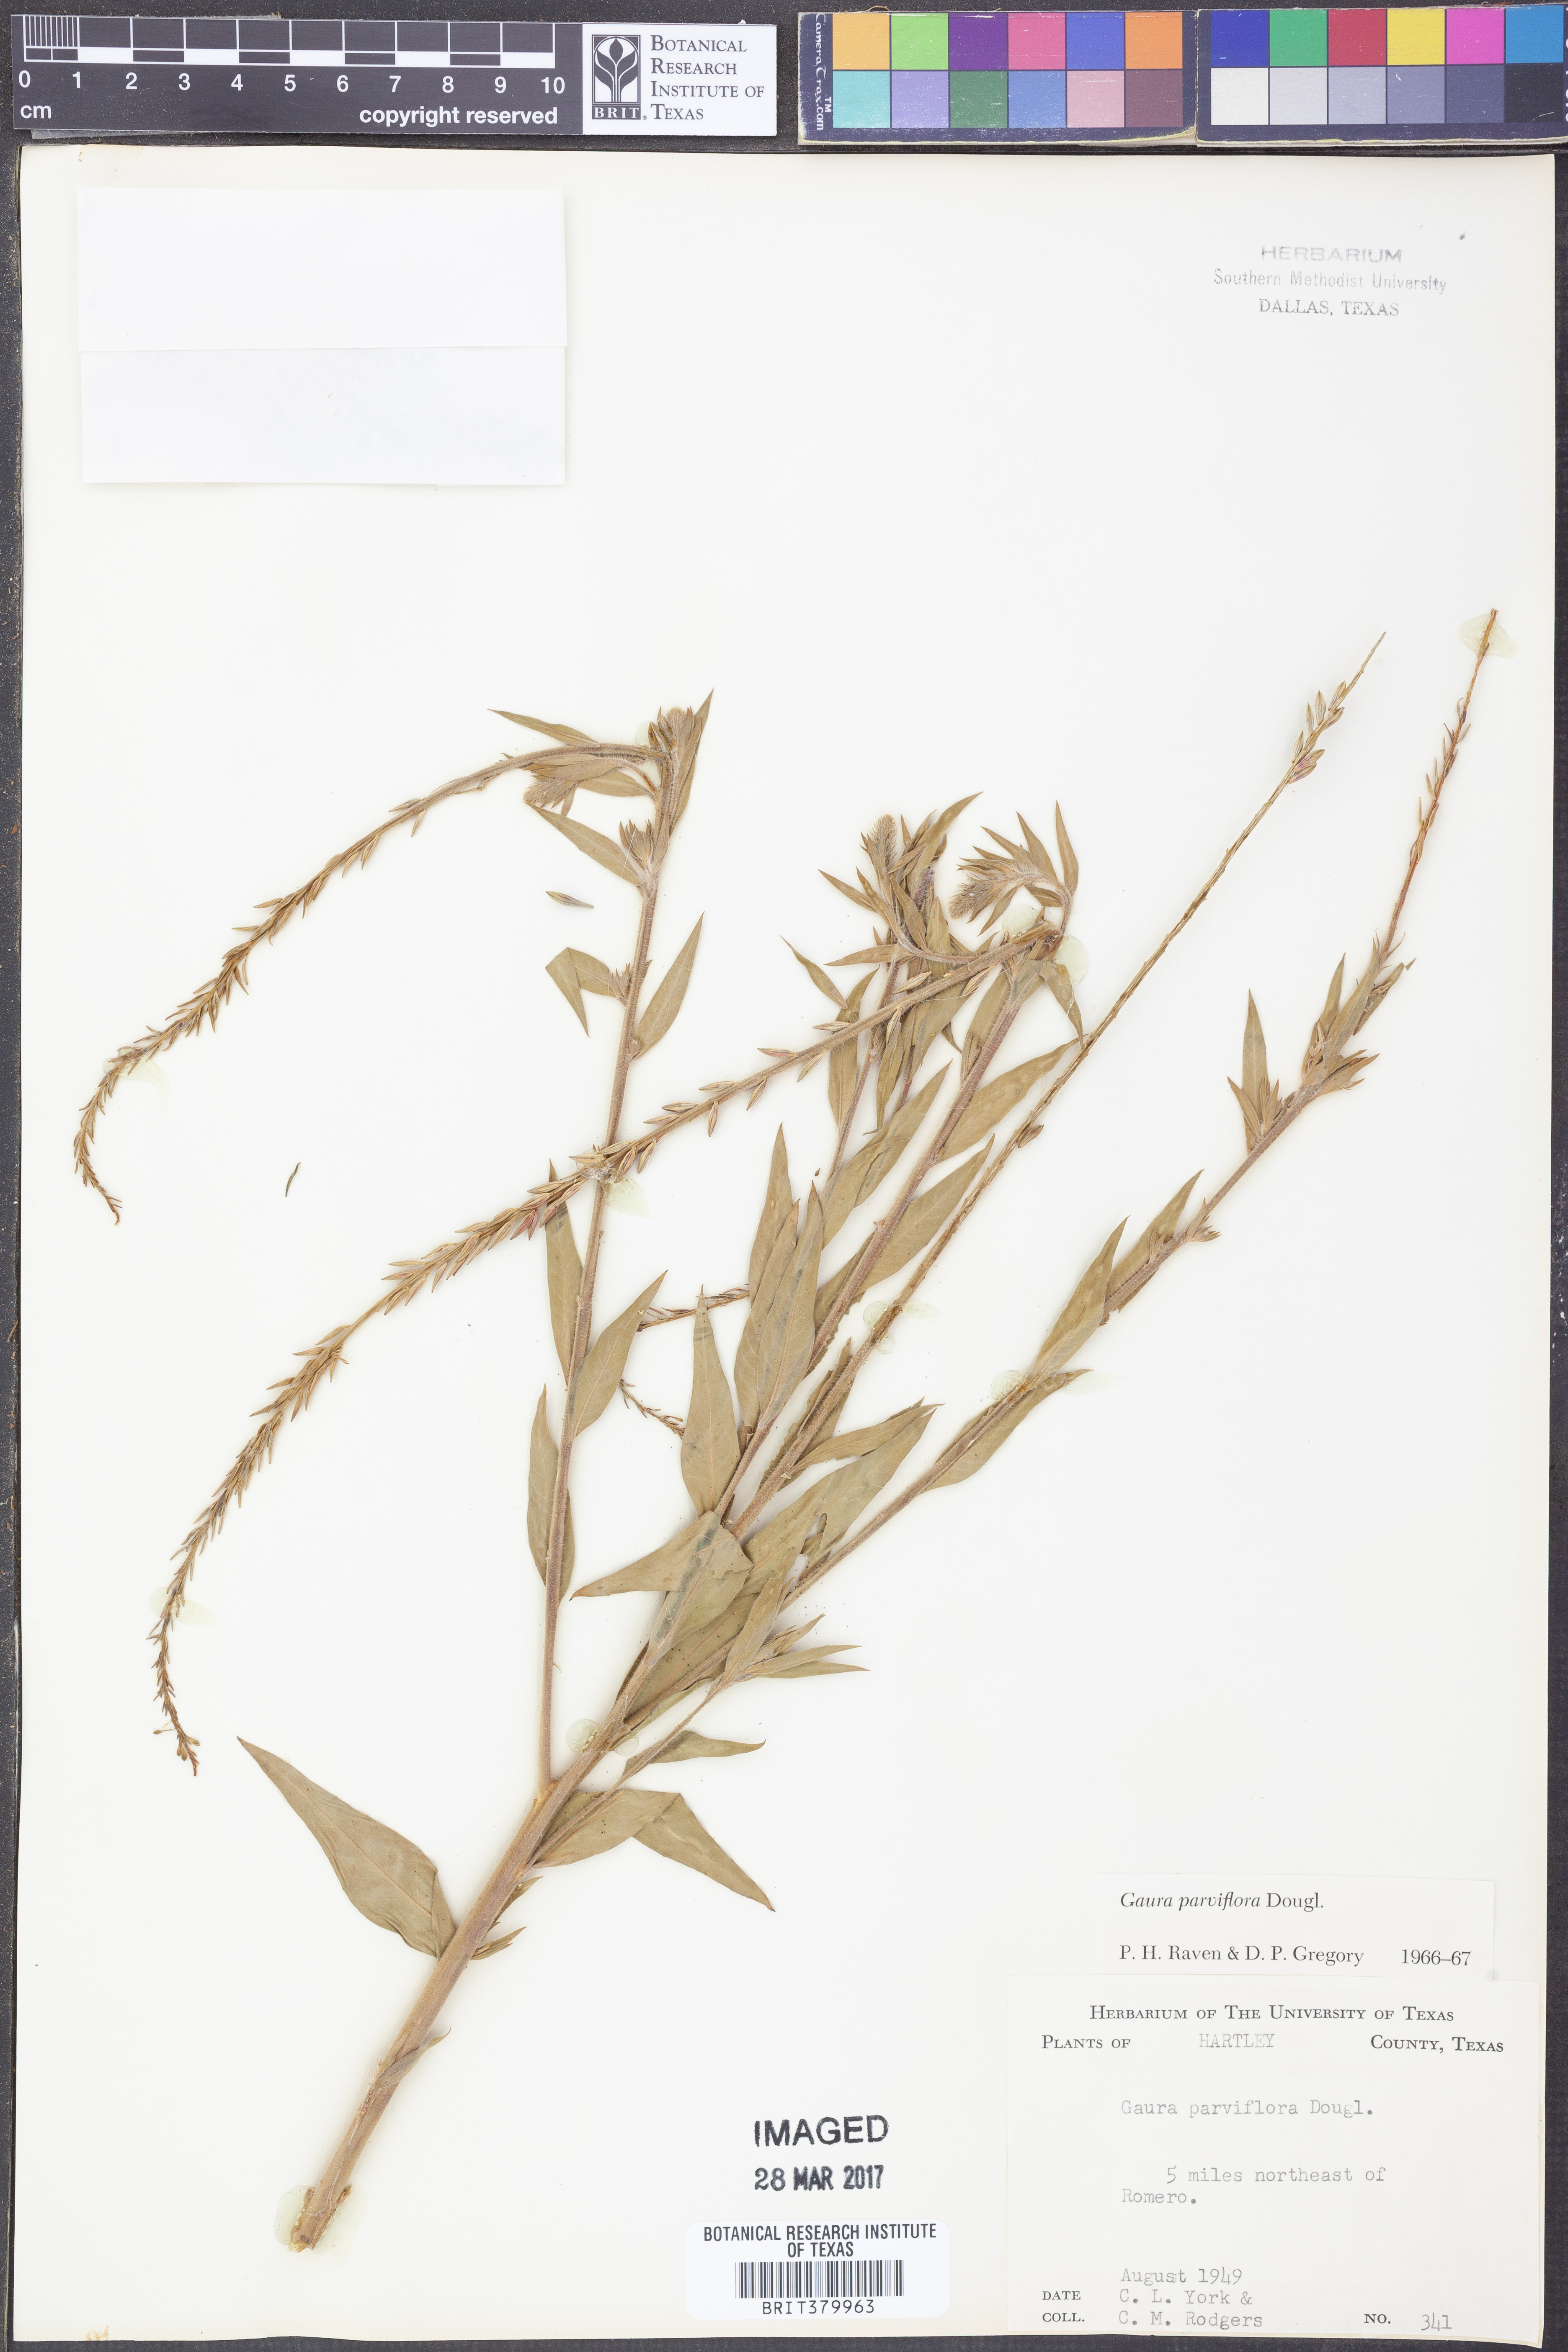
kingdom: Plantae
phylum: Tracheophyta
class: Magnoliopsida
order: Myrtales
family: Onagraceae
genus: Oenothera
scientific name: Oenothera curtiflora
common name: Velvetweed
